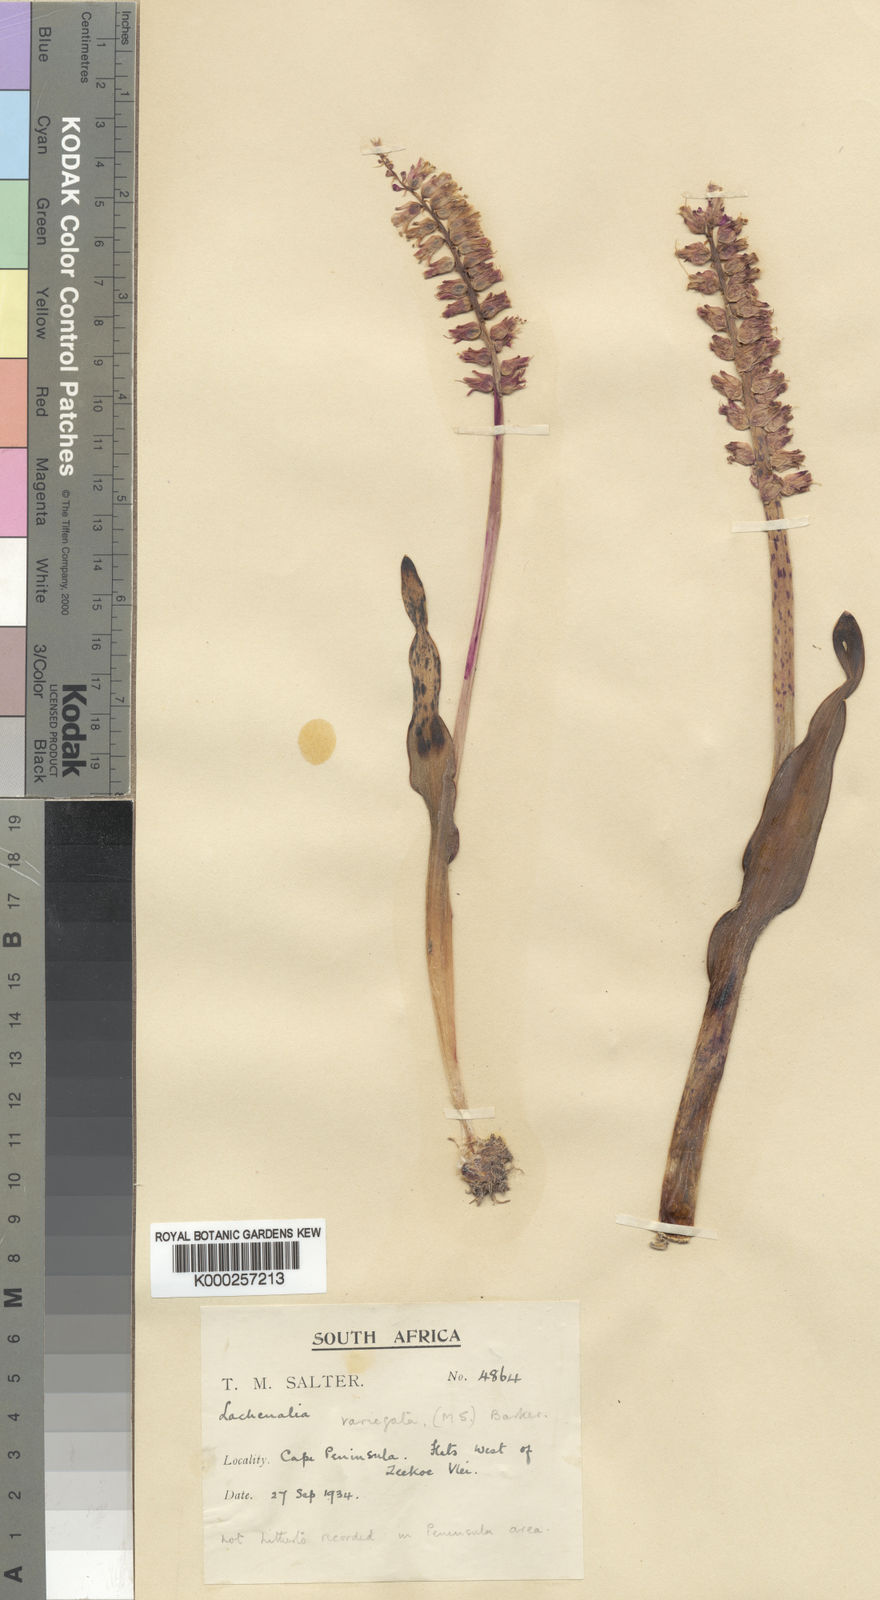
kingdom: Plantae
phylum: Tracheophyta
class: Liliopsida
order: Asparagales
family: Asparagaceae
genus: Lachenalia
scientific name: Lachenalia variegata
